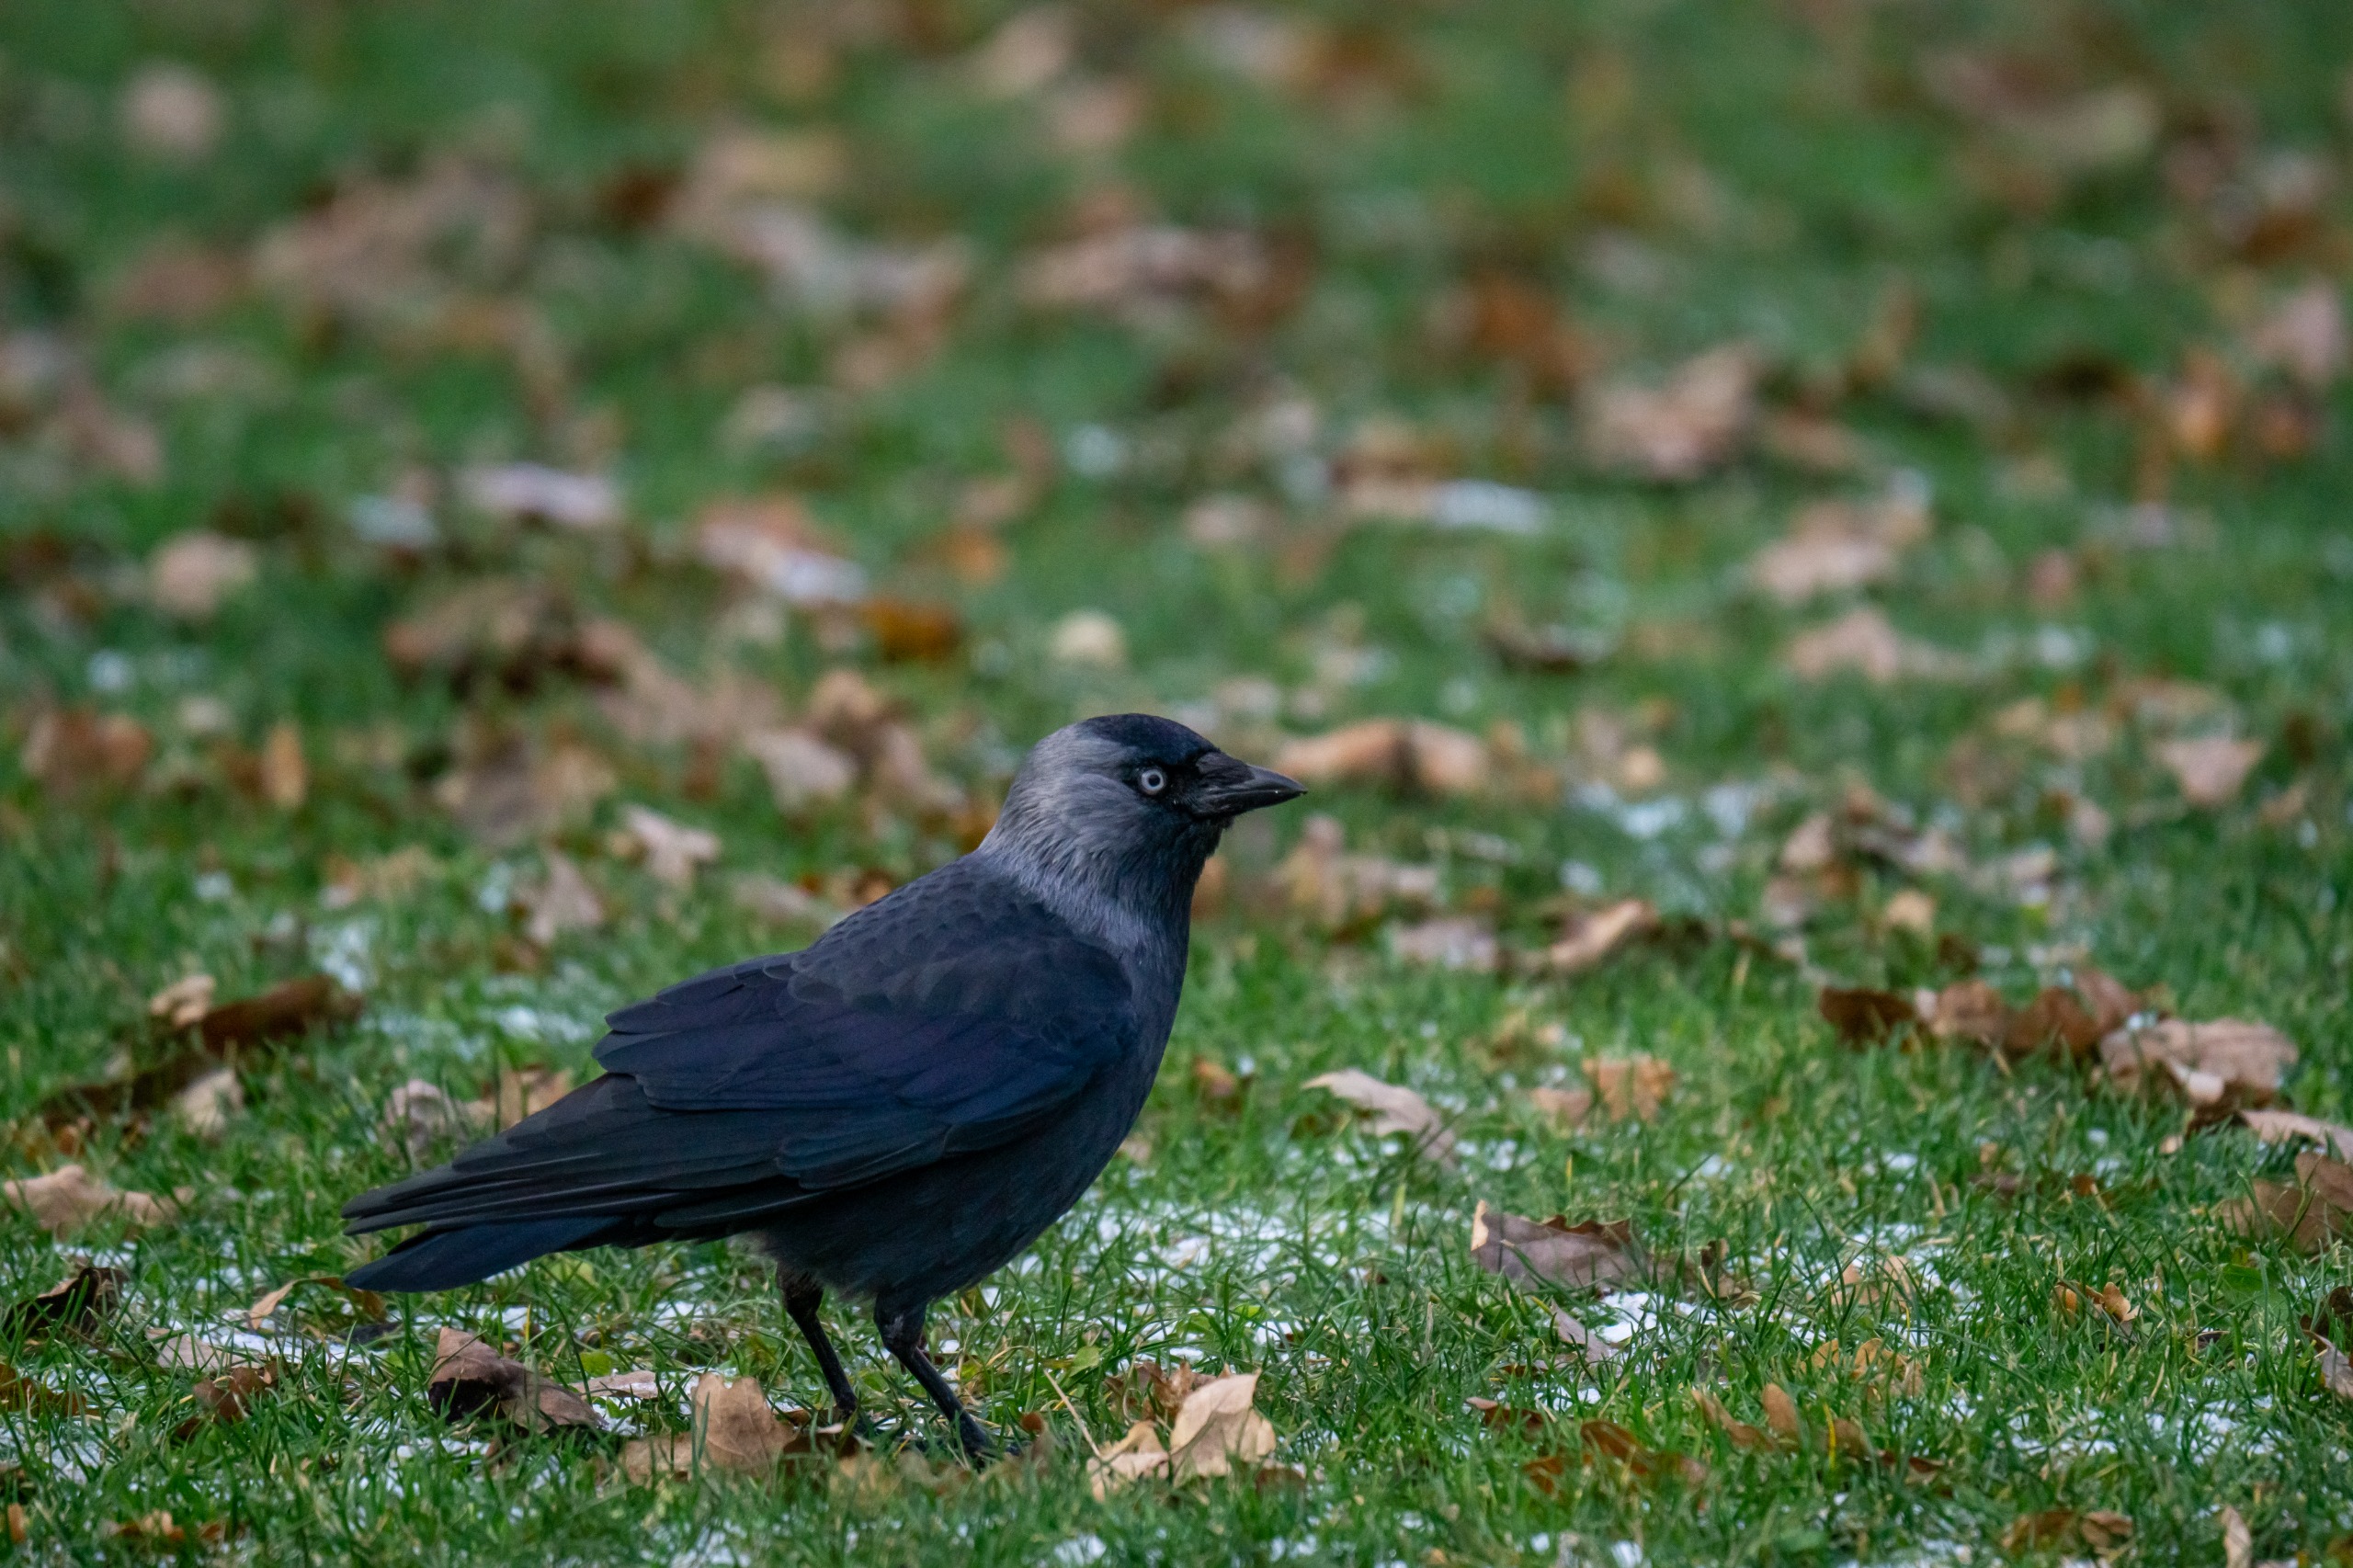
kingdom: Animalia
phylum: Chordata
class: Aves
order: Passeriformes
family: Corvidae
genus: Coloeus
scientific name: Coloeus monedula
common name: Allike
